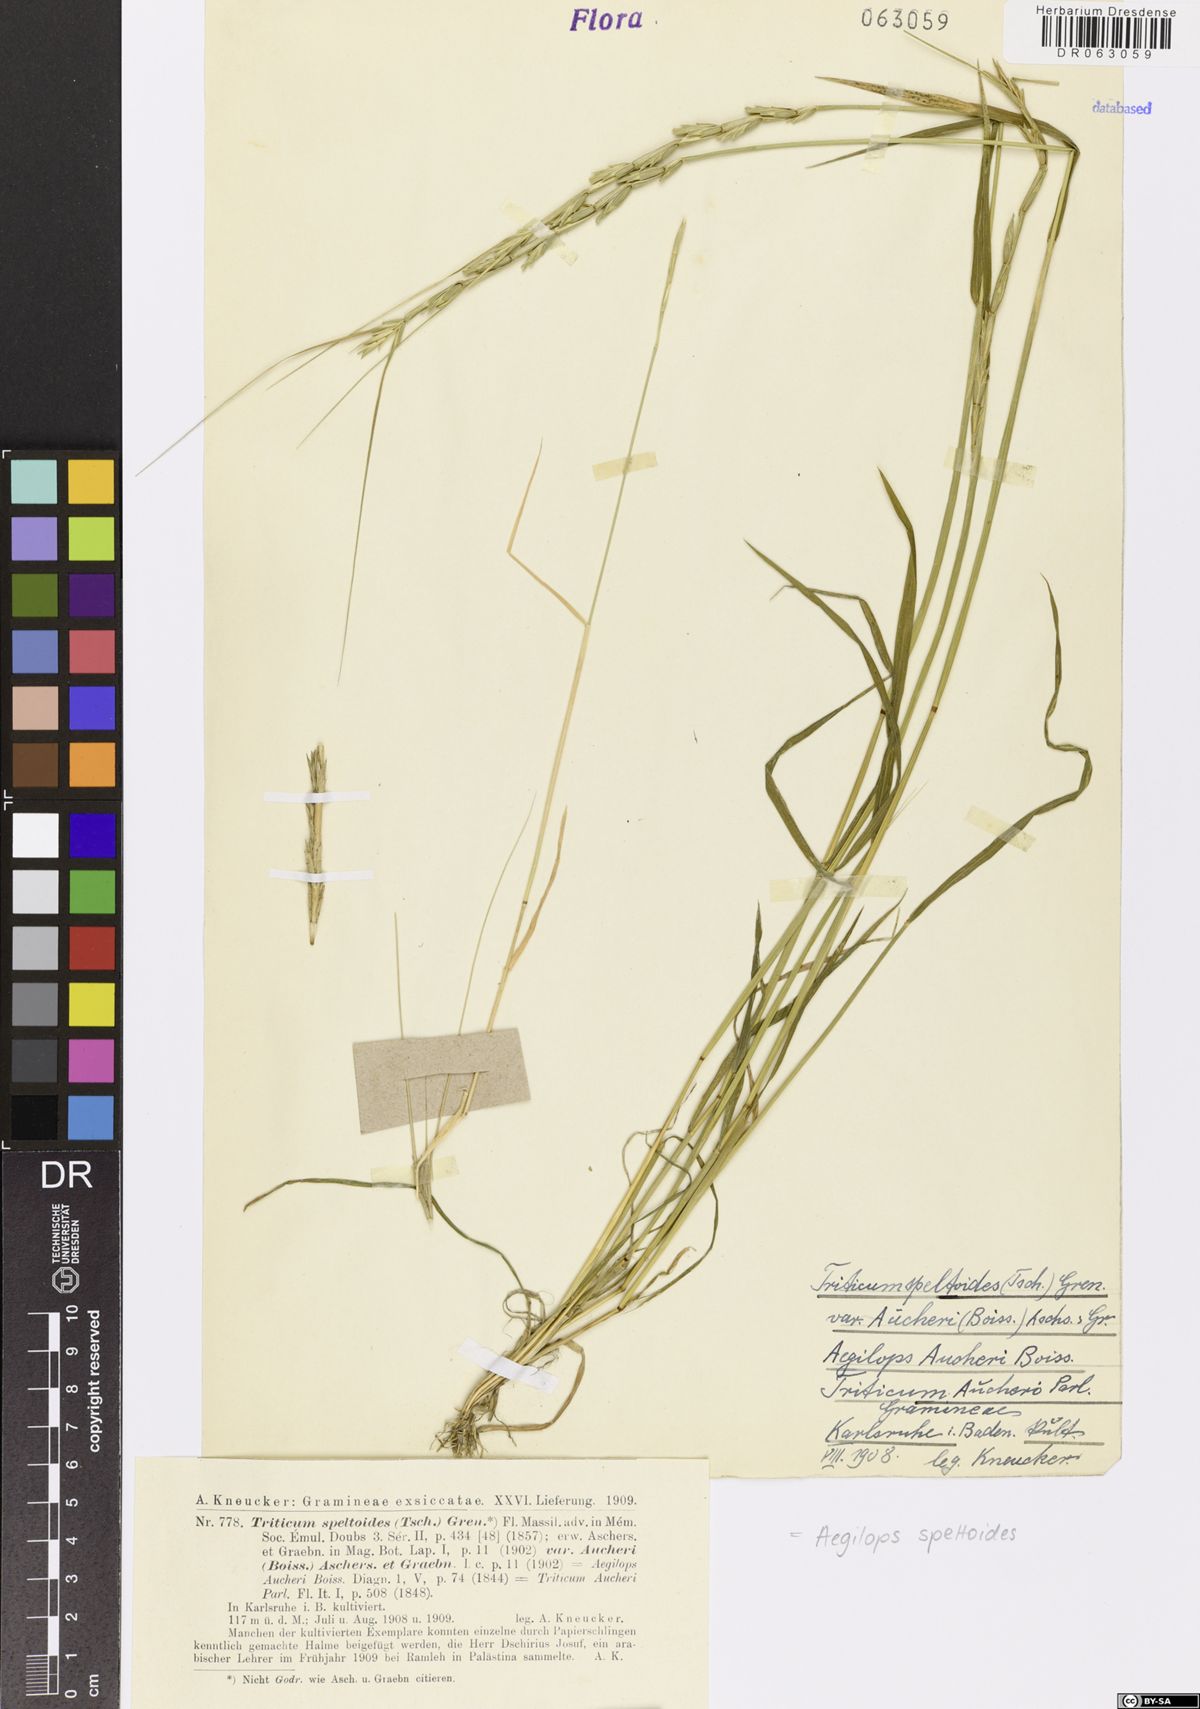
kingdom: Plantae
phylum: Tracheophyta
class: Liliopsida
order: Poales
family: Poaceae
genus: Aegilops
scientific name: Aegilops speltoides
